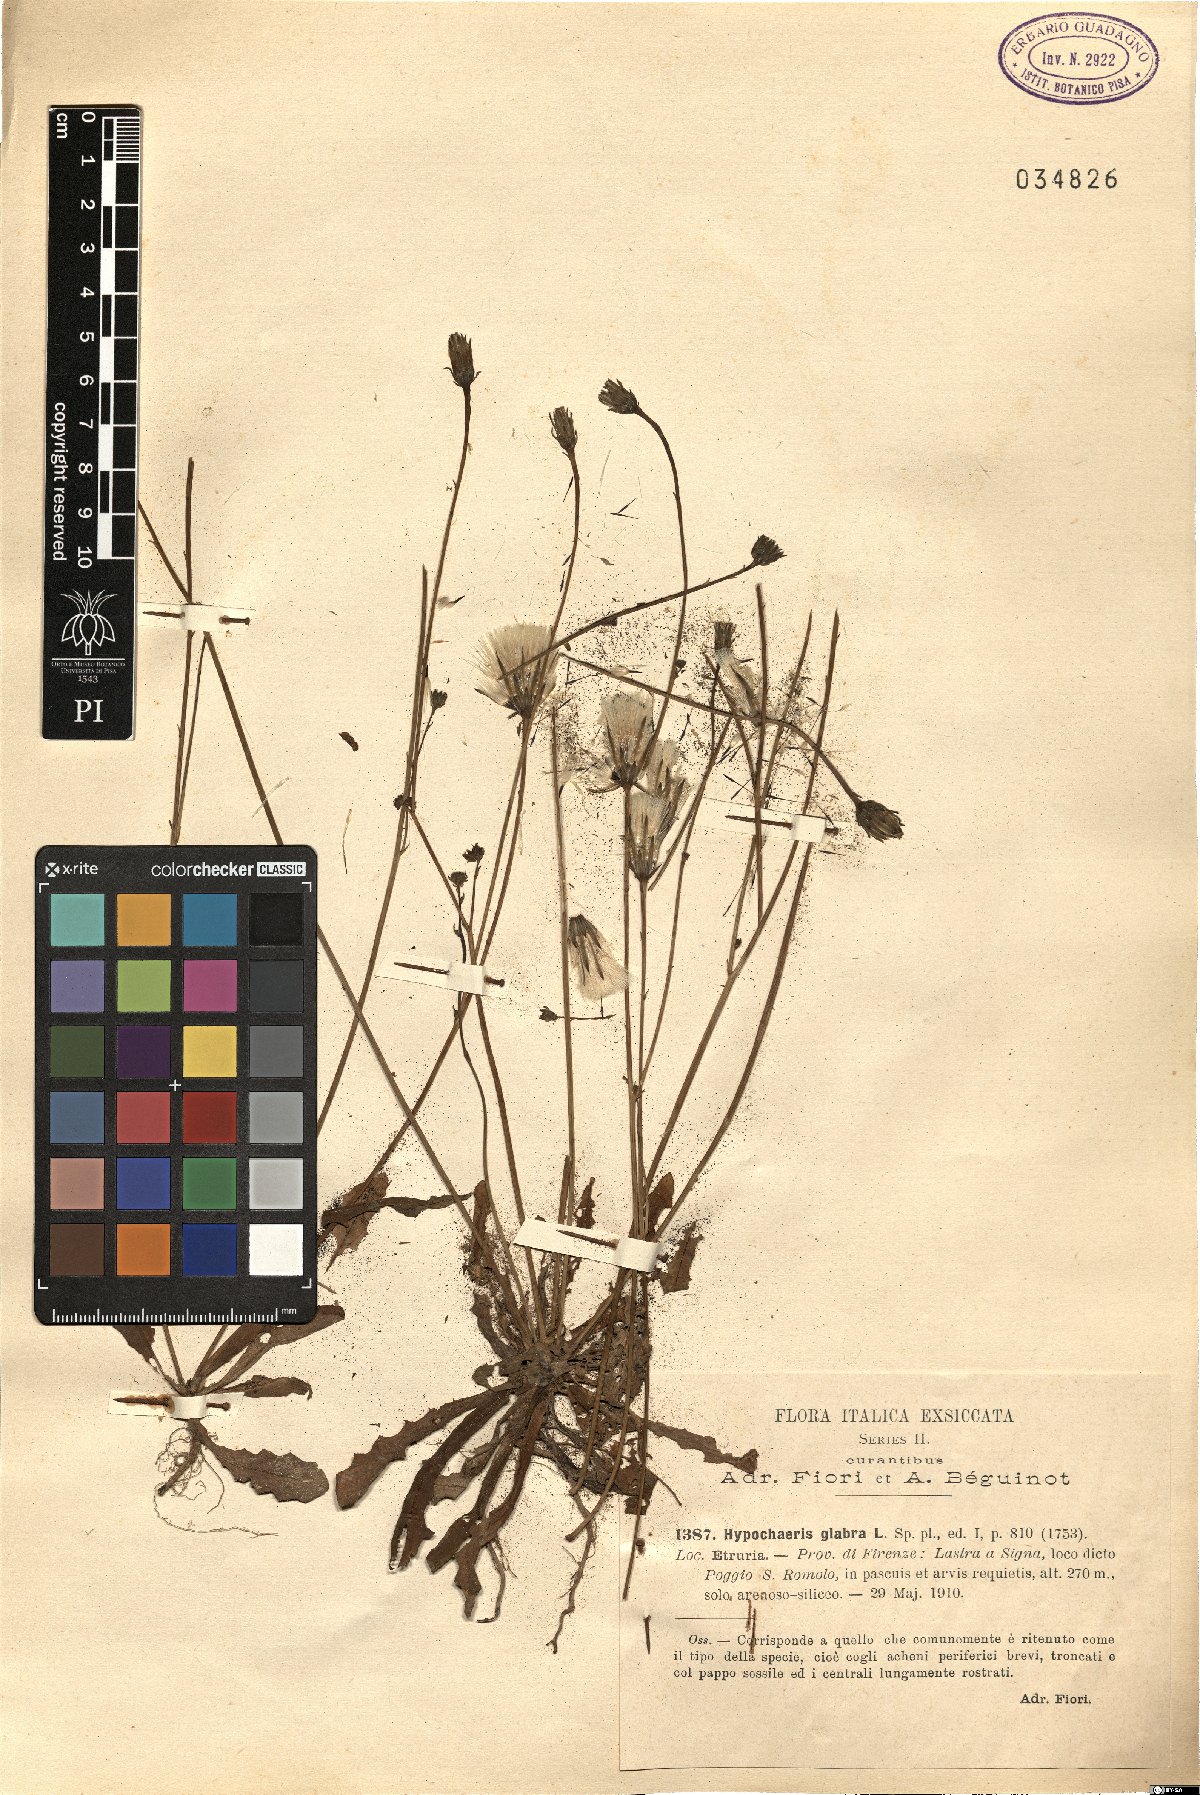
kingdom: Plantae
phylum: Tracheophyta
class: Magnoliopsida
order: Asterales
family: Asteraceae
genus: Hypochaeris
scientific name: Hypochaeris glabra
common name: Smooth catsear
